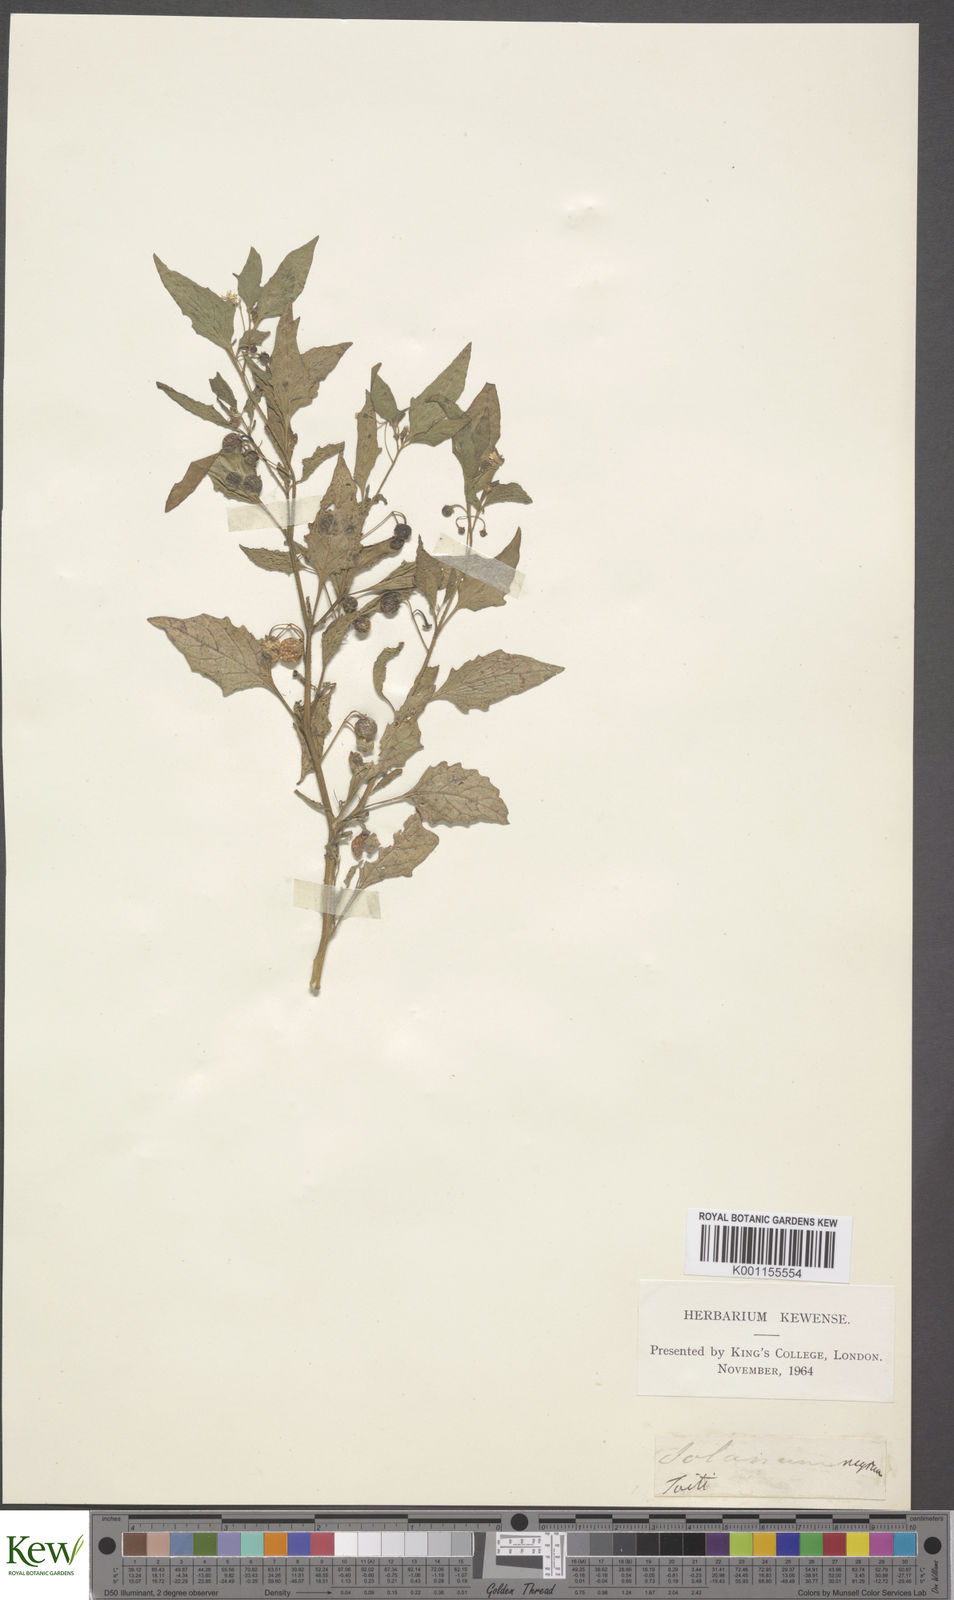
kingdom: Plantae
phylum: Tracheophyta
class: Magnoliopsida
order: Solanales
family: Solanaceae
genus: Solanum
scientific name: Solanum americanum
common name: American black nightshade
